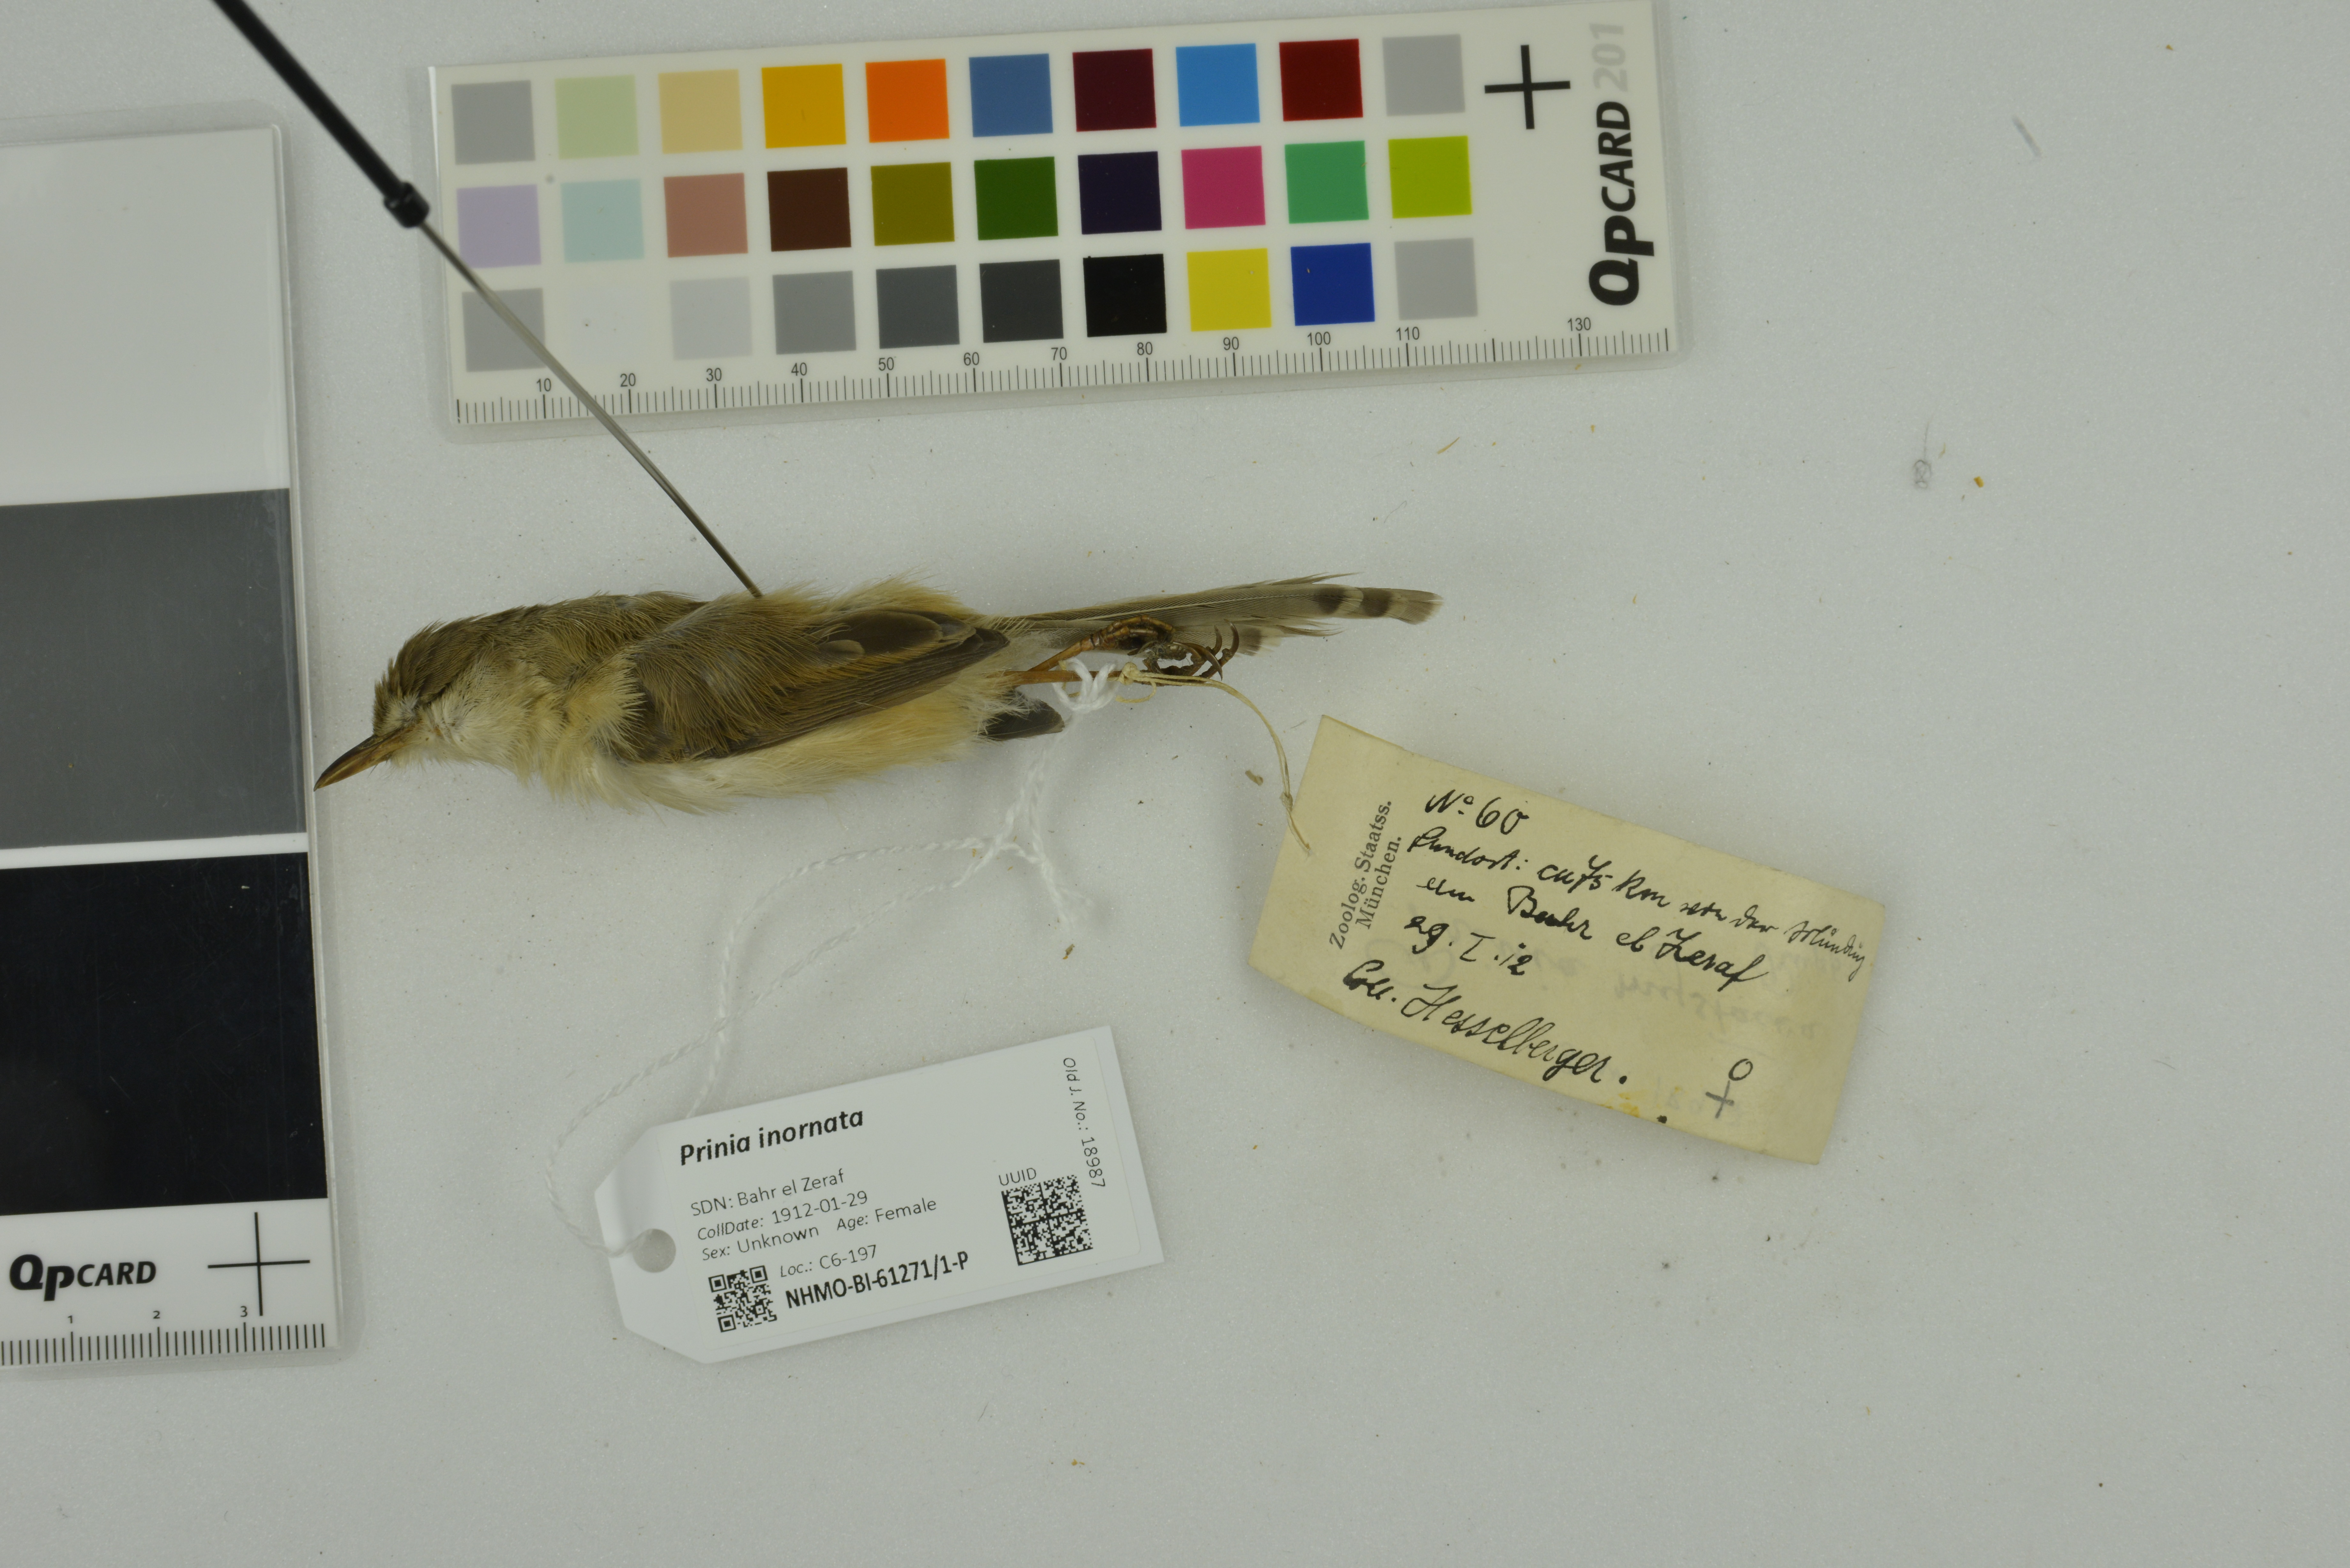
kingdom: Animalia
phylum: Chordata
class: Aves
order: Passeriformes
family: Cisticolidae
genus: Prinia
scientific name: Prinia inornata
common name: Plain prinia
